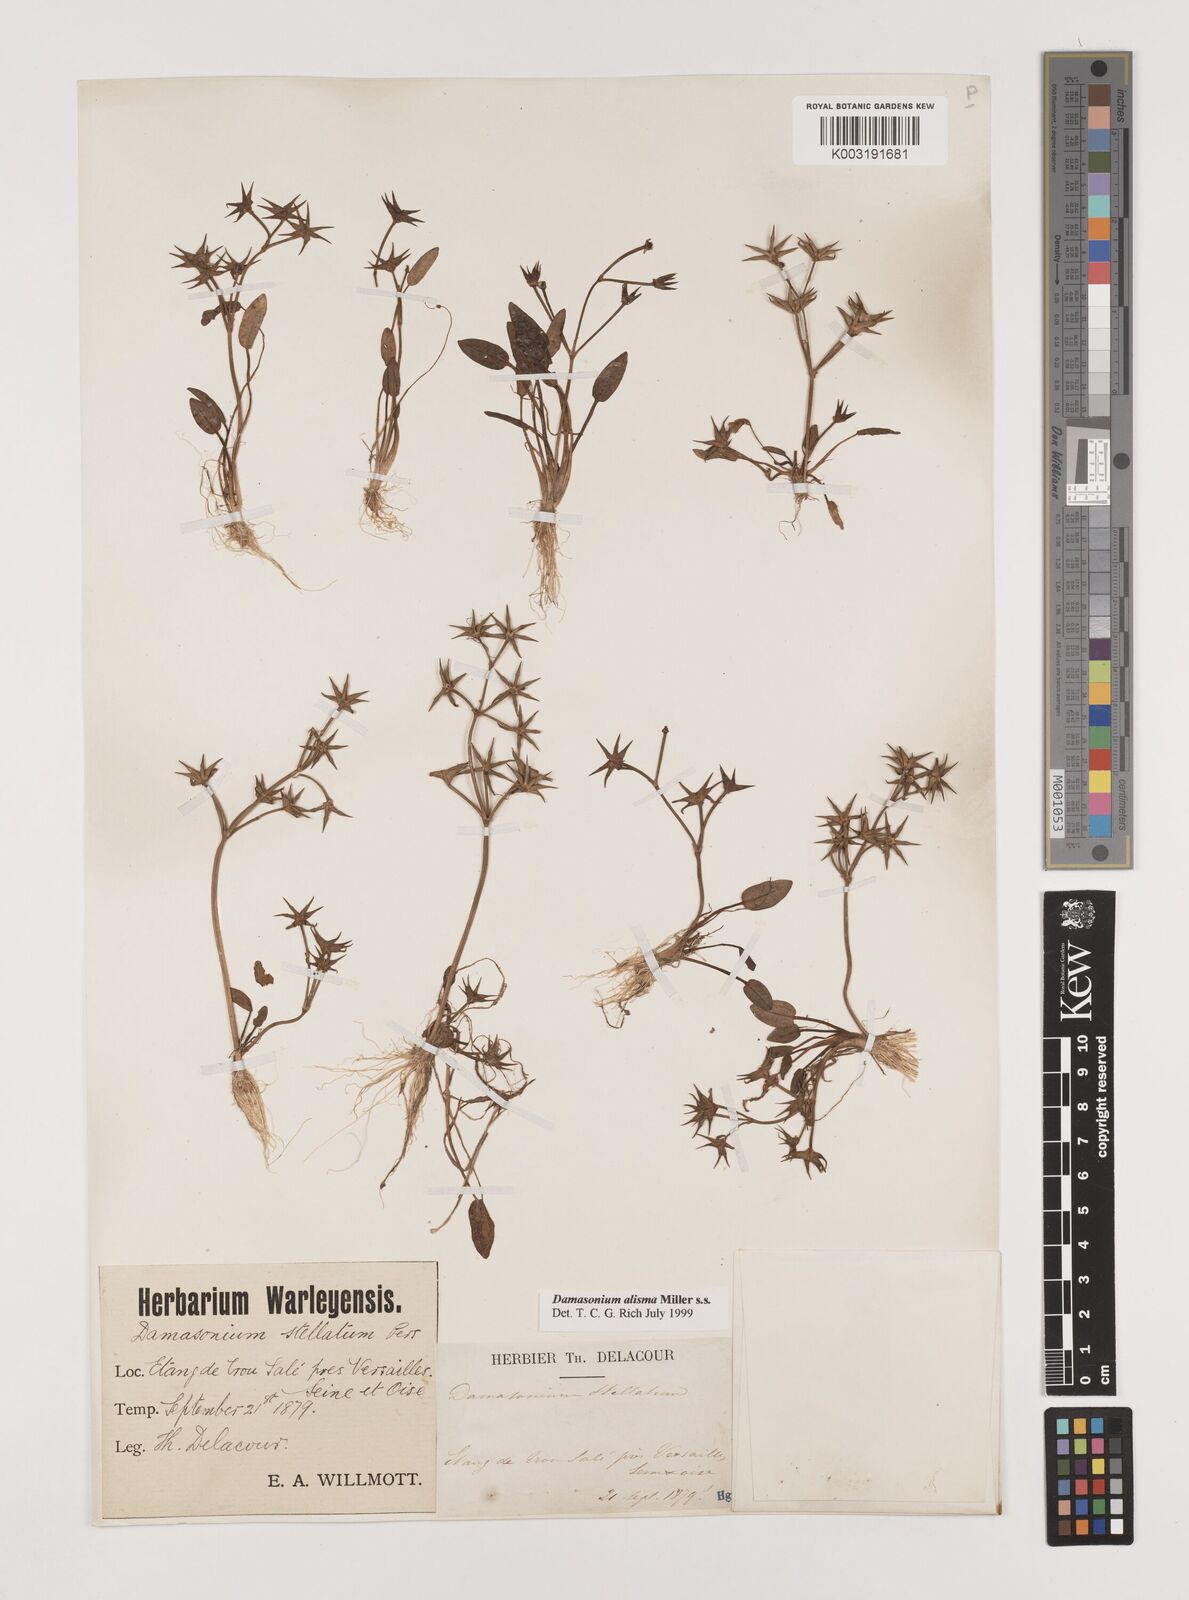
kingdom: Plantae
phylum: Tracheophyta
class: Liliopsida
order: Alismatales
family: Alismataceae
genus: Damasonium
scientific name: Damasonium alisma
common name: Starfruit
